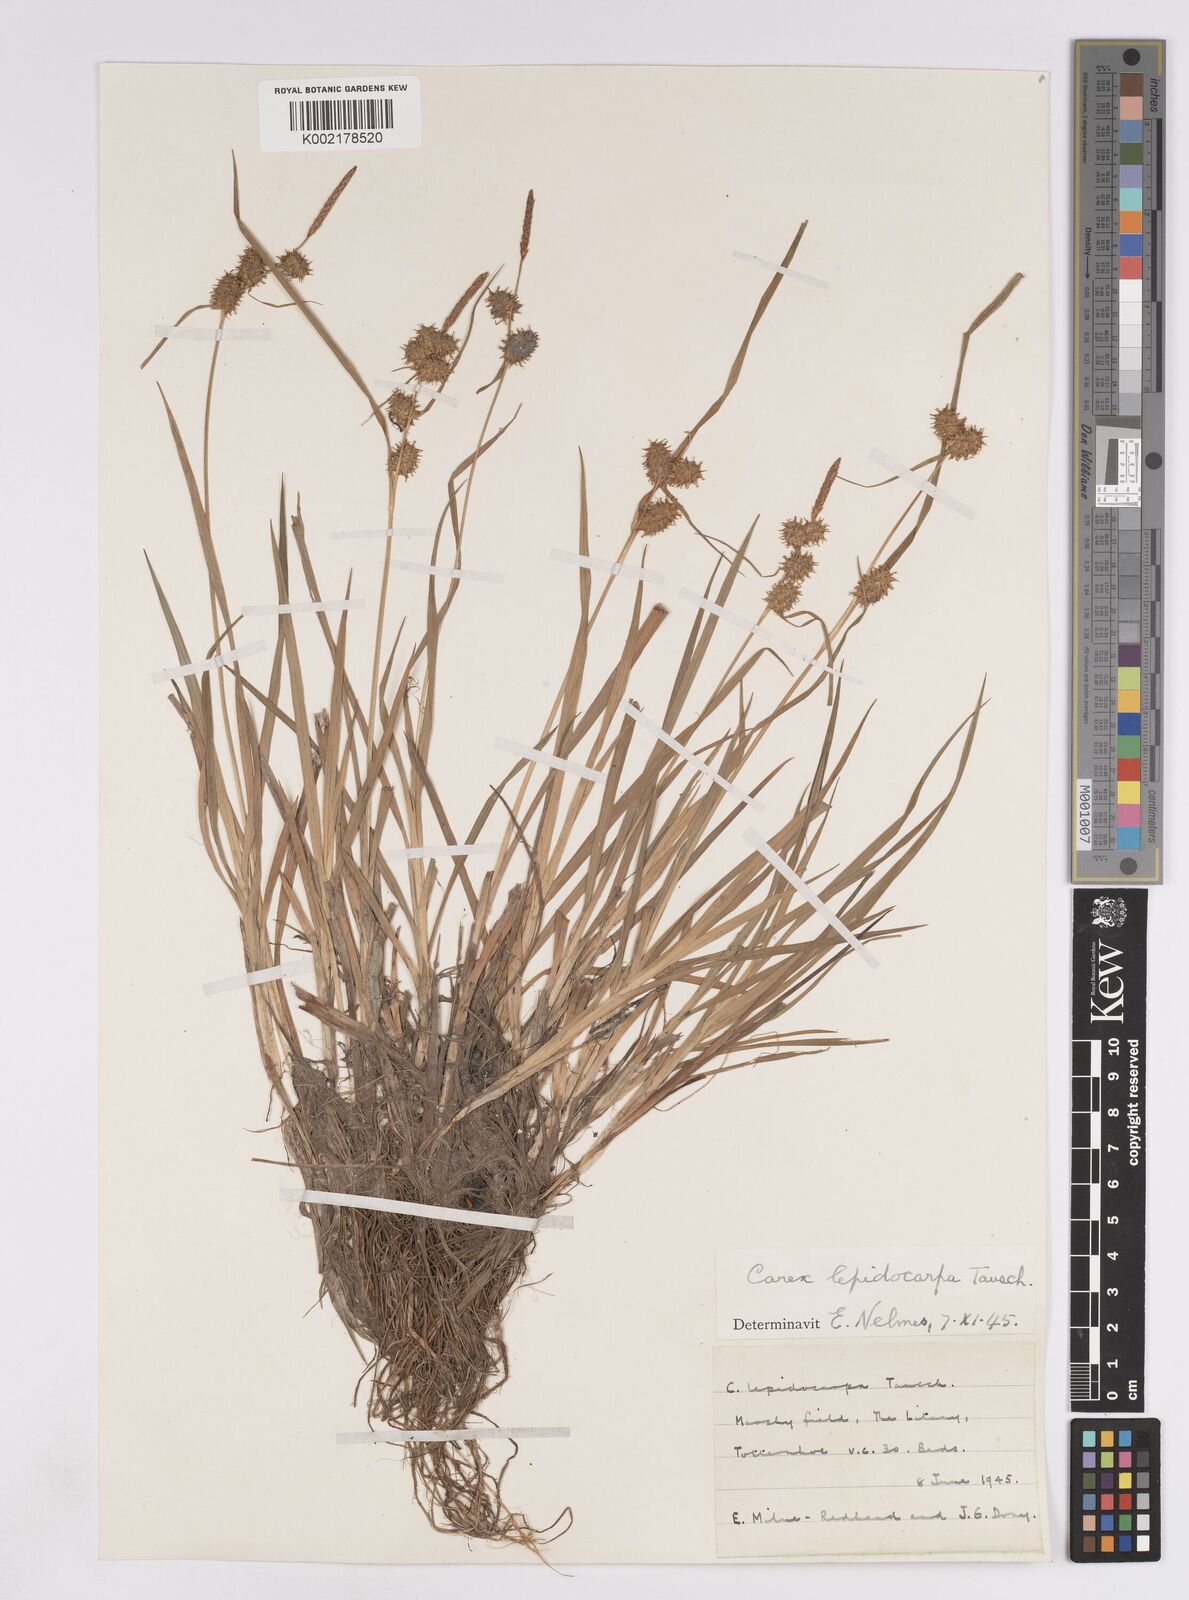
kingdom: Plantae
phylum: Tracheophyta
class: Liliopsida
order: Poales
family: Cyperaceae
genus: Carex
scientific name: Carex lepidocarpa
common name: Long-stalked yellow-sedge
